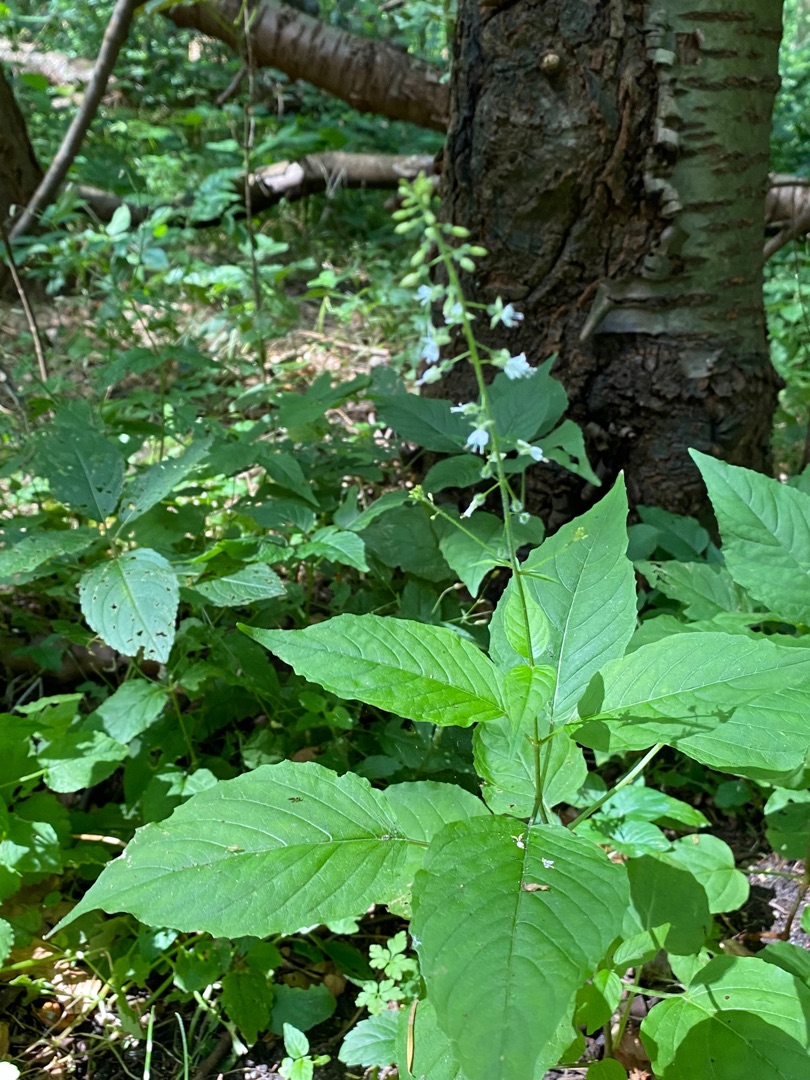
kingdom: Plantae
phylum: Tracheophyta
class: Magnoliopsida
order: Myrtales
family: Onagraceae
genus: Circaea
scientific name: Circaea lutetiana
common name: Dunet steffensurt
